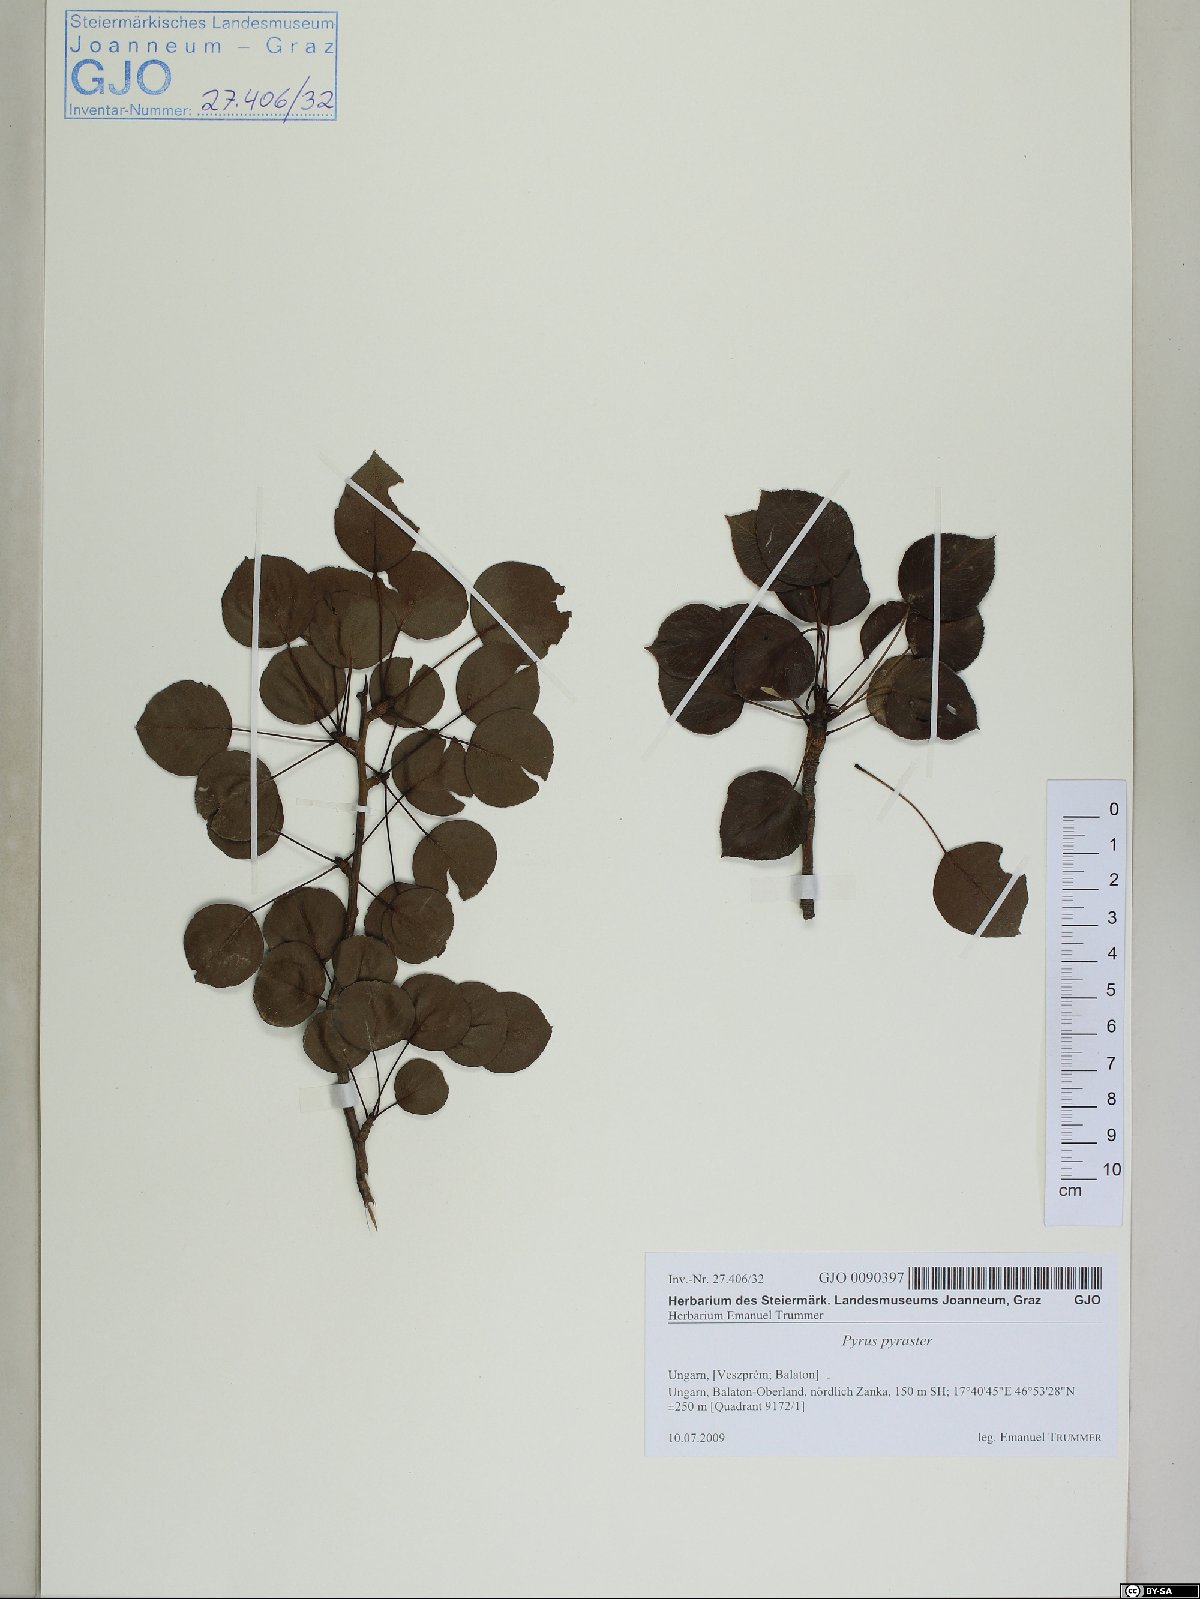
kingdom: Plantae
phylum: Tracheophyta
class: Magnoliopsida
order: Rosales
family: Rosaceae
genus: Pyrus
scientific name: Pyrus pyraster
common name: Wild pear
